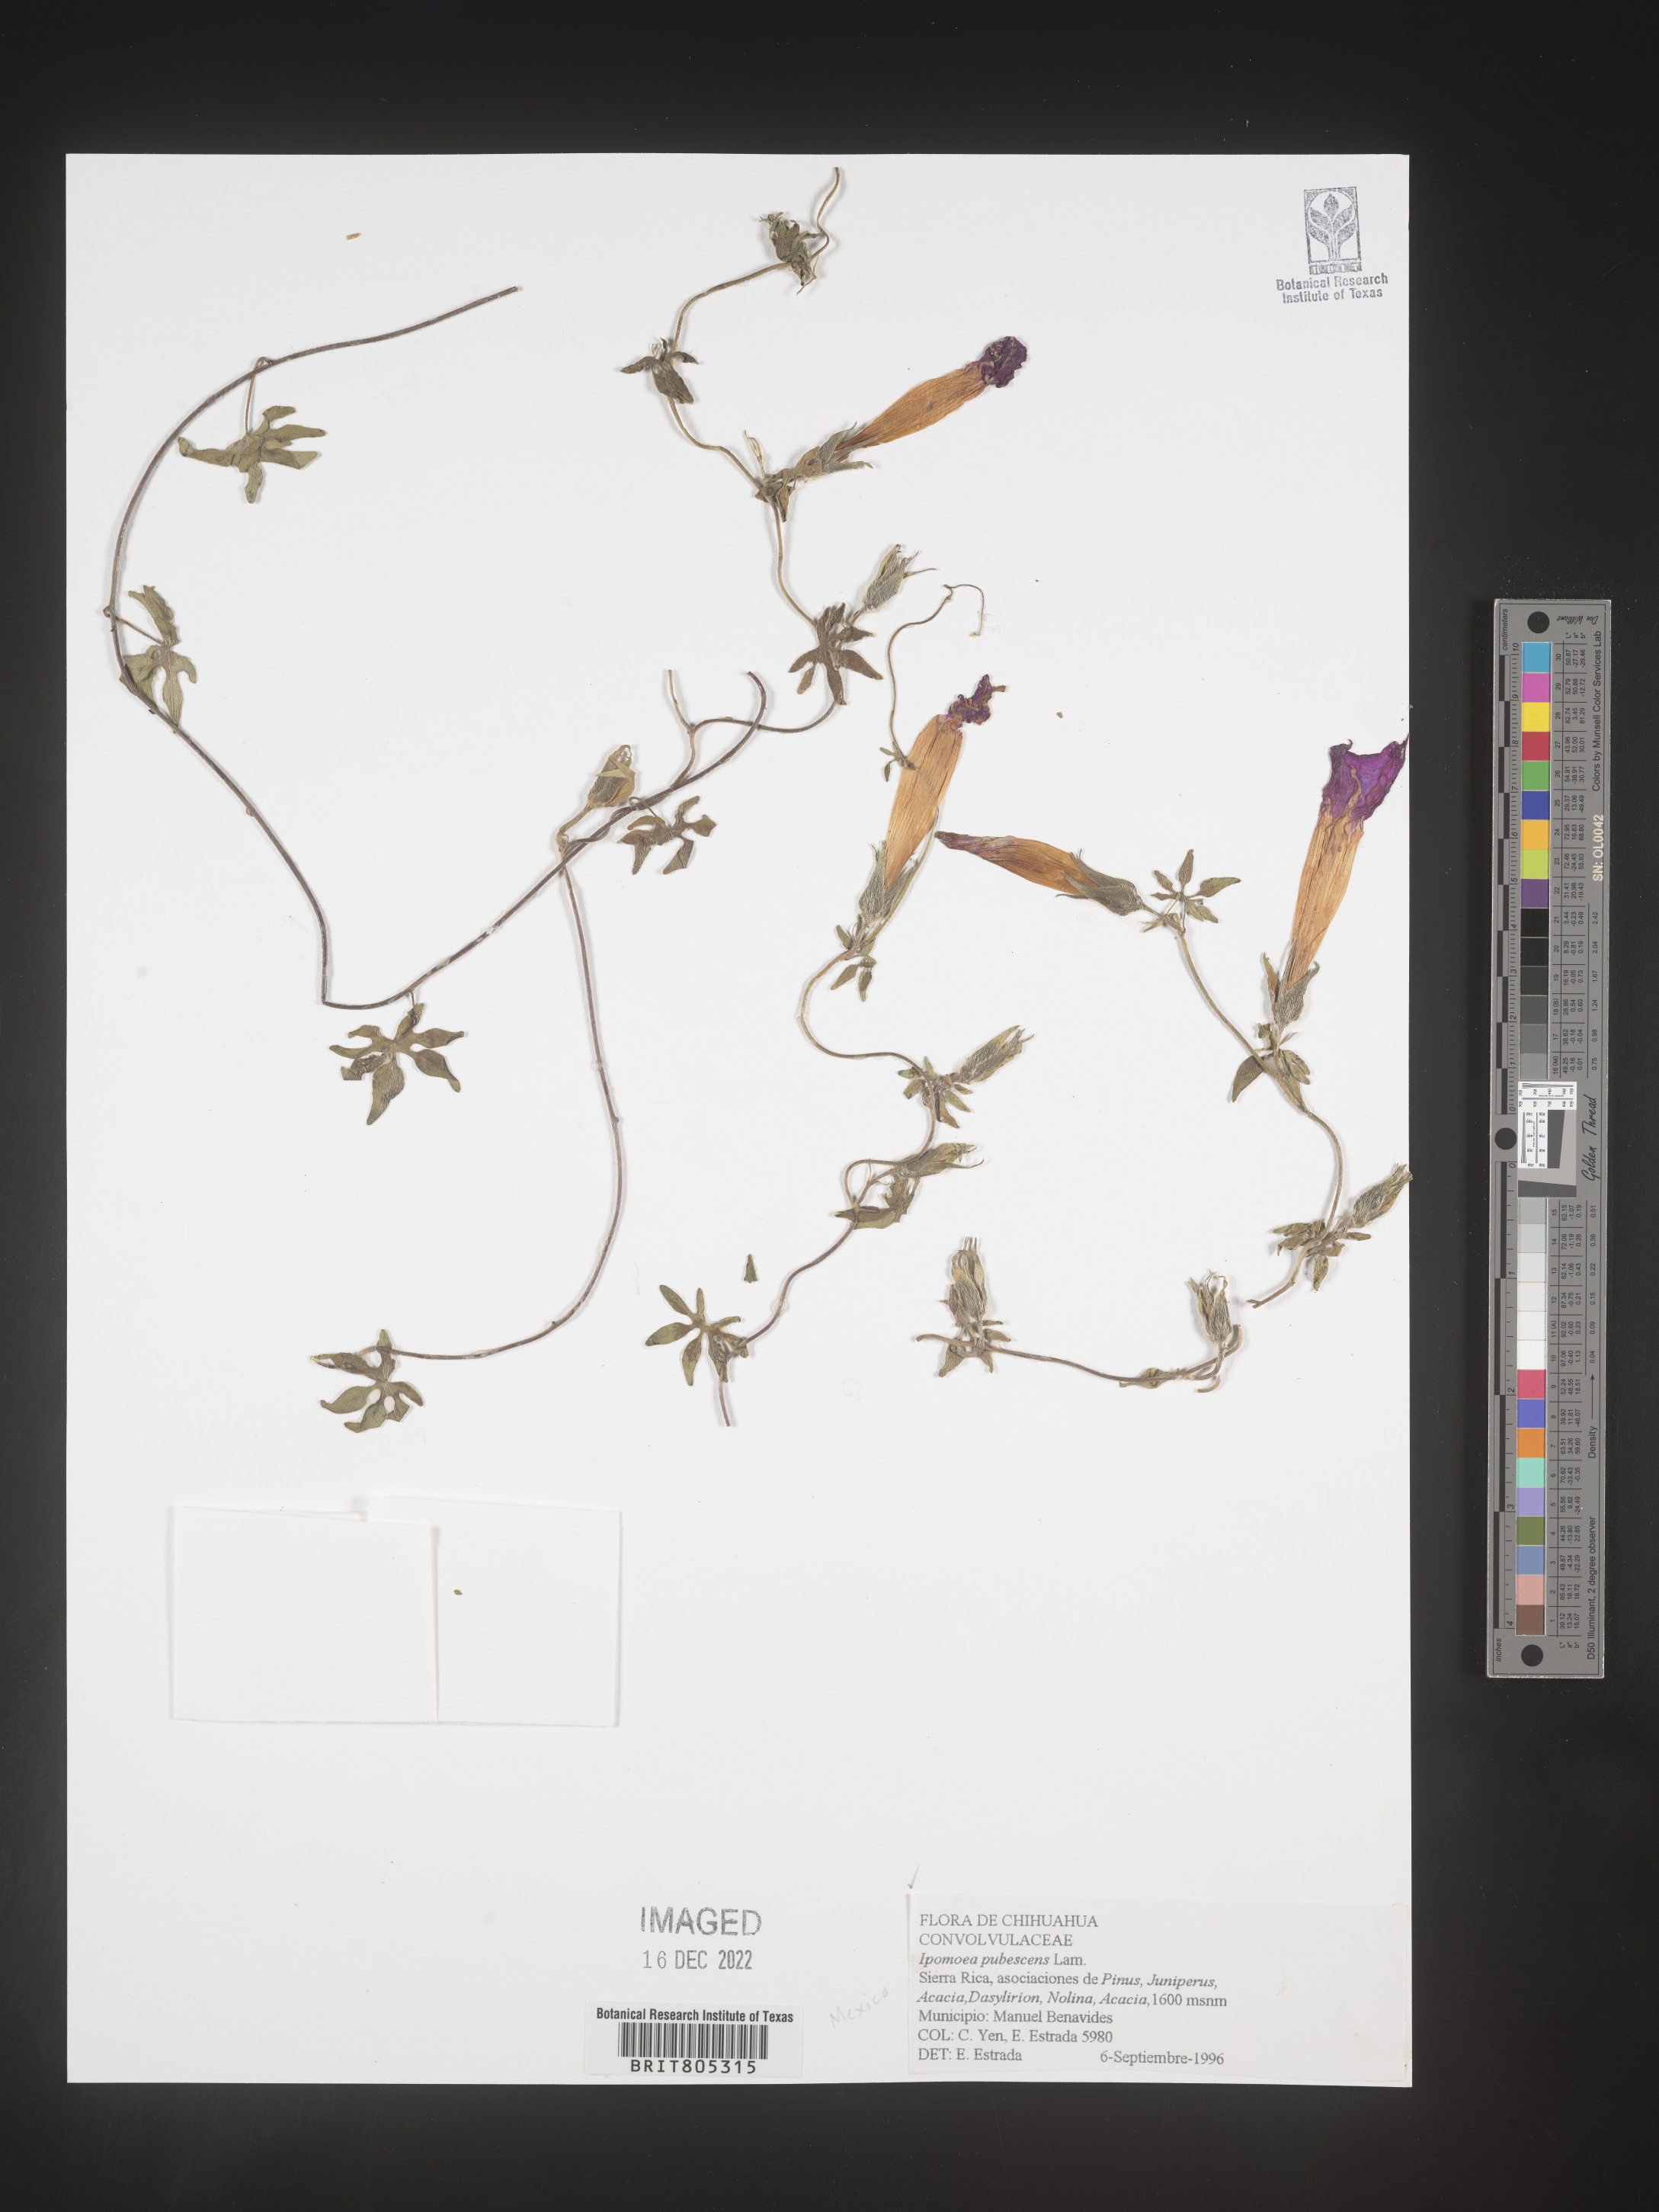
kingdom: Plantae
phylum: Tracheophyta
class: Magnoliopsida
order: Solanales
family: Convolvulaceae
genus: Ipomoea
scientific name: Ipomoea
